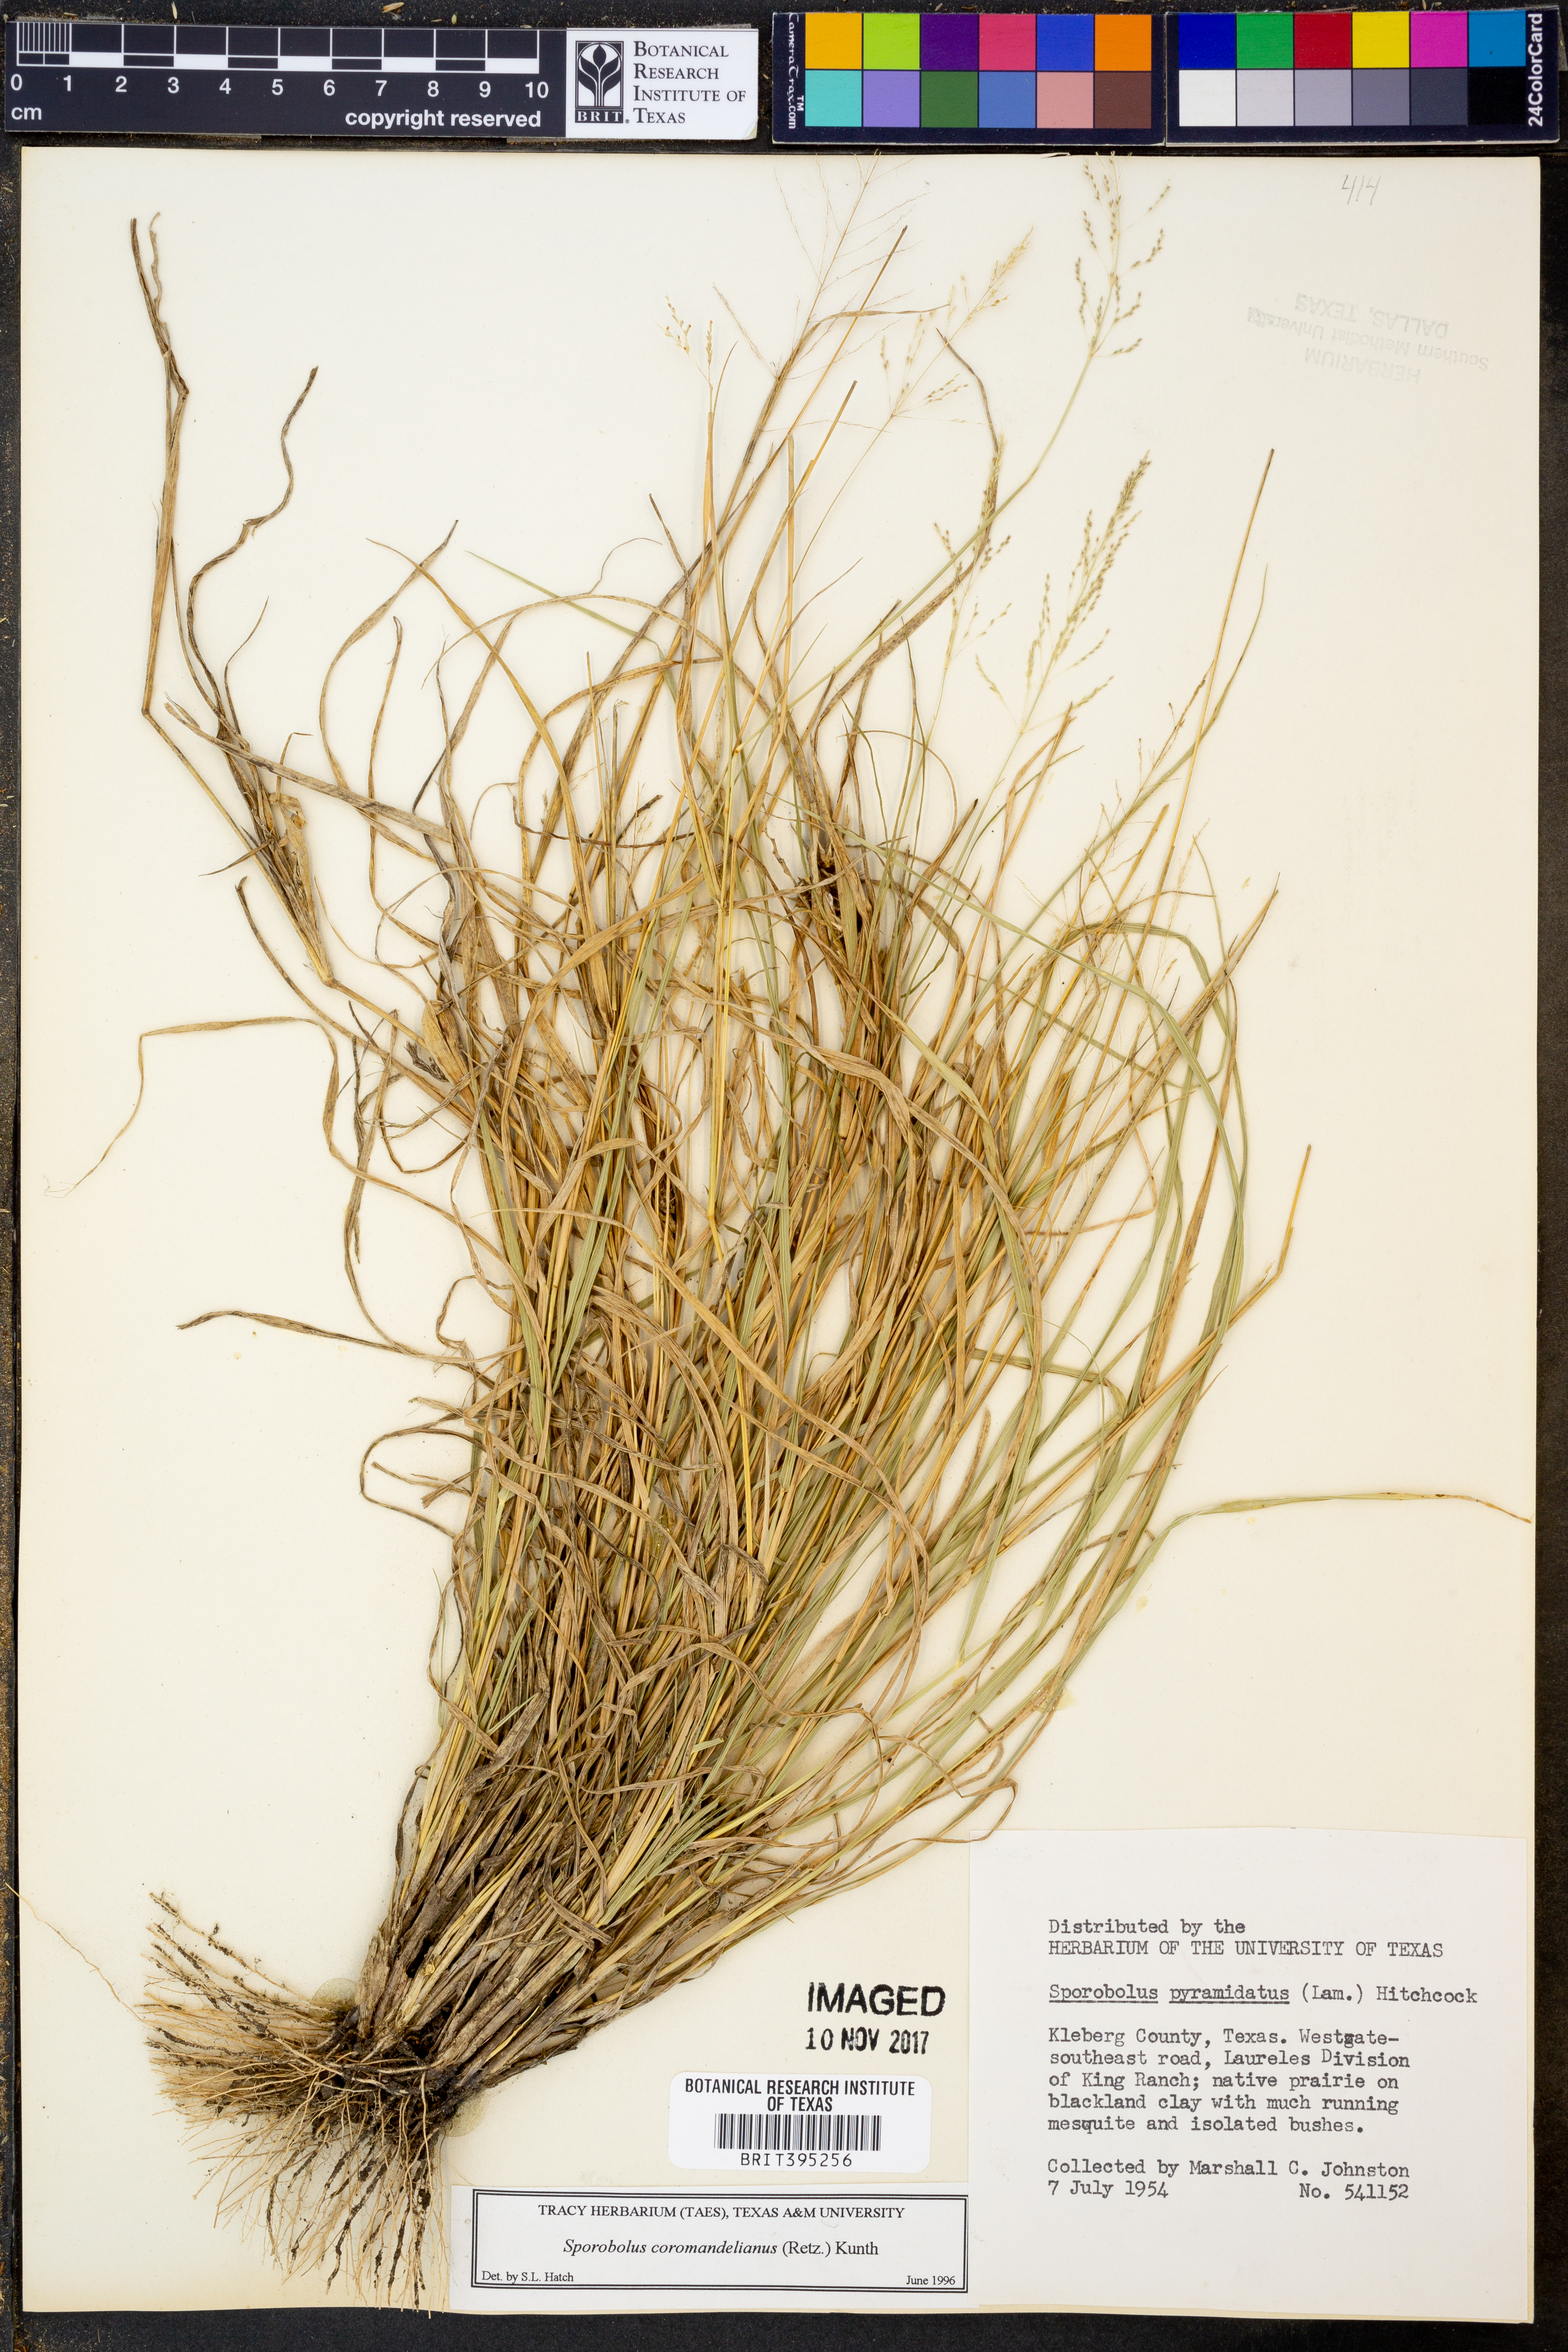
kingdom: Plantae
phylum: Tracheophyta
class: Liliopsida
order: Poales
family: Poaceae
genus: Sporobolus
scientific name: Sporobolus coromandelianus
